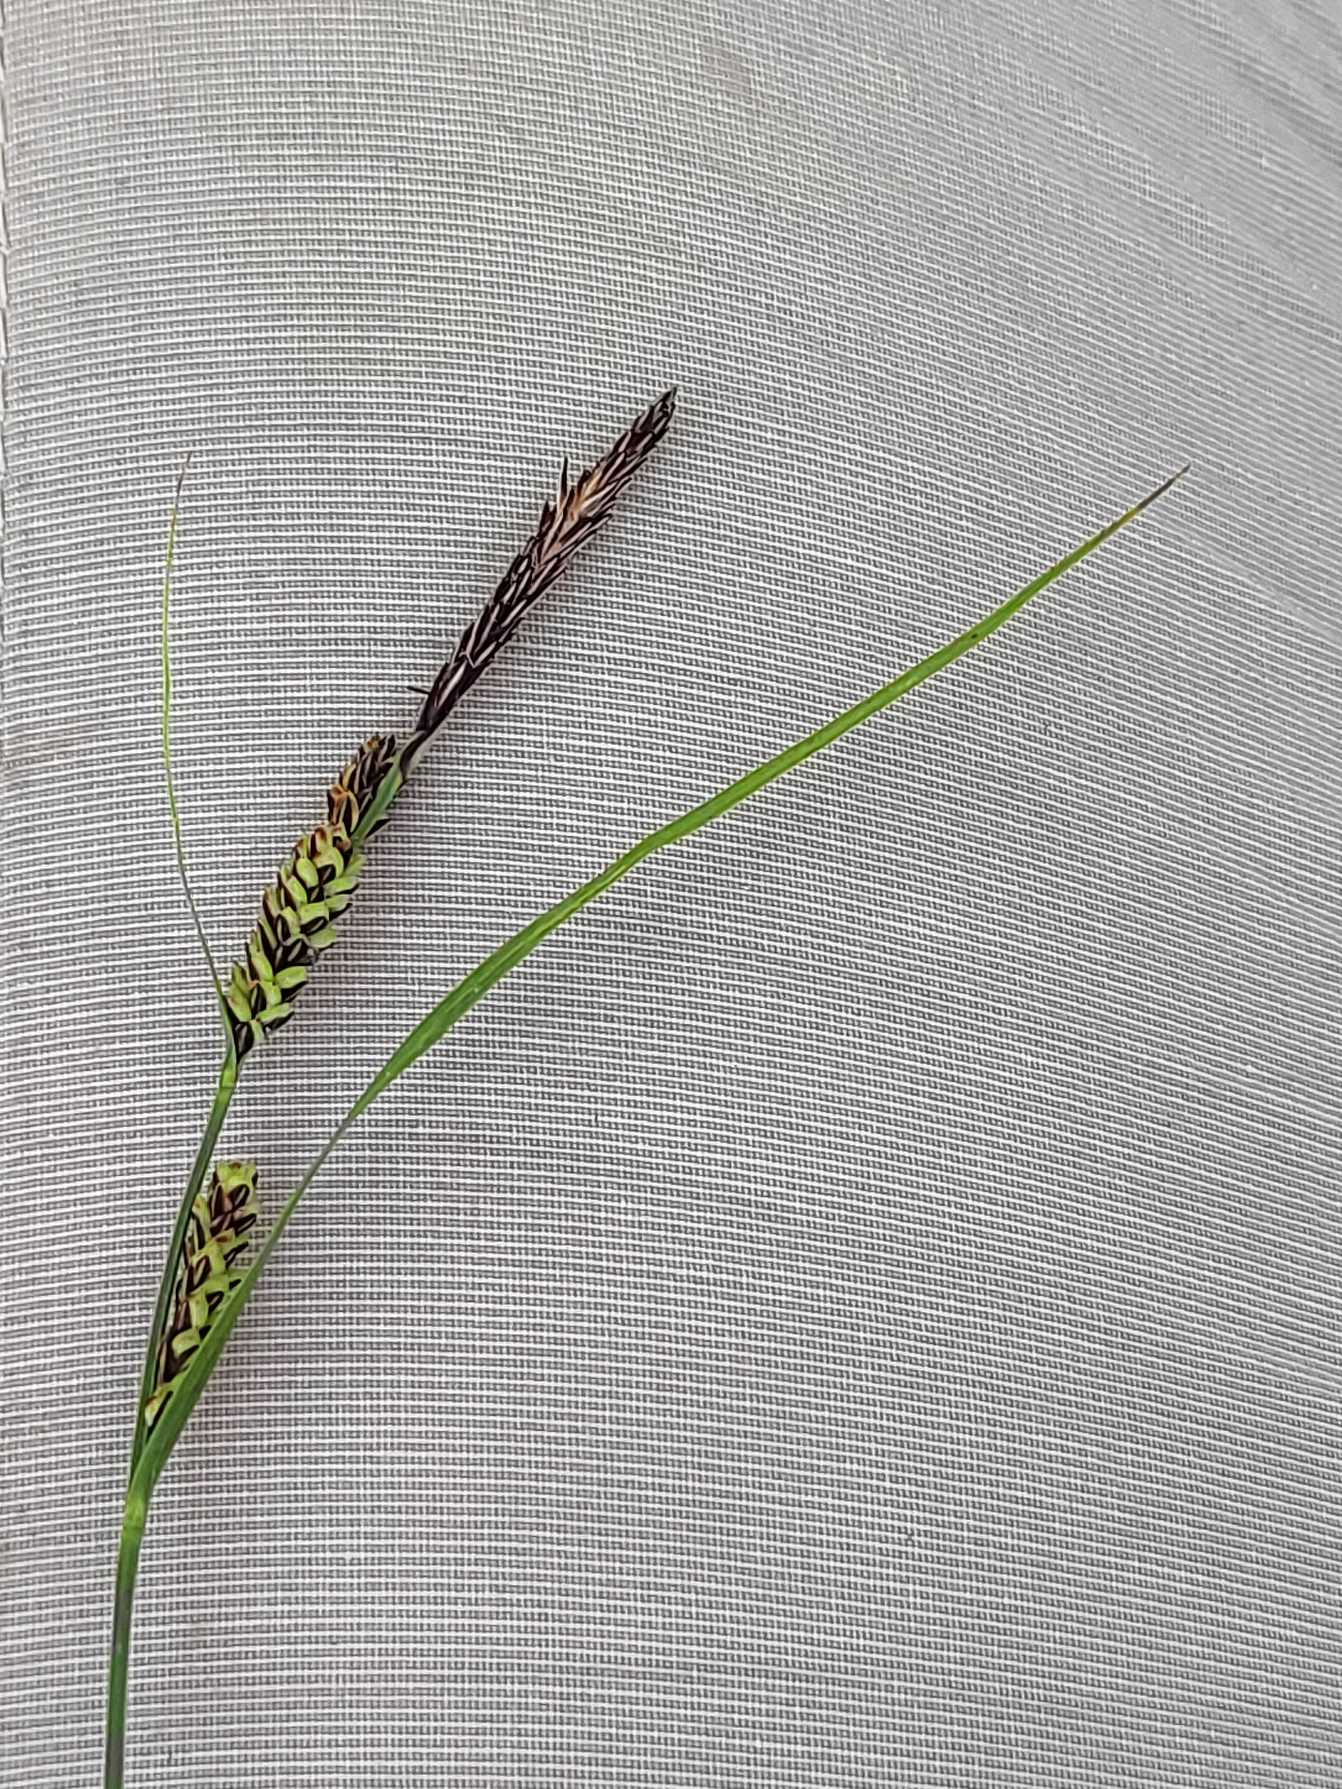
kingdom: Plantae
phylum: Tracheophyta
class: Liliopsida
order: Poales
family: Cyperaceae
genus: Carex
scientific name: Carex nigra
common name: Almindelig star
